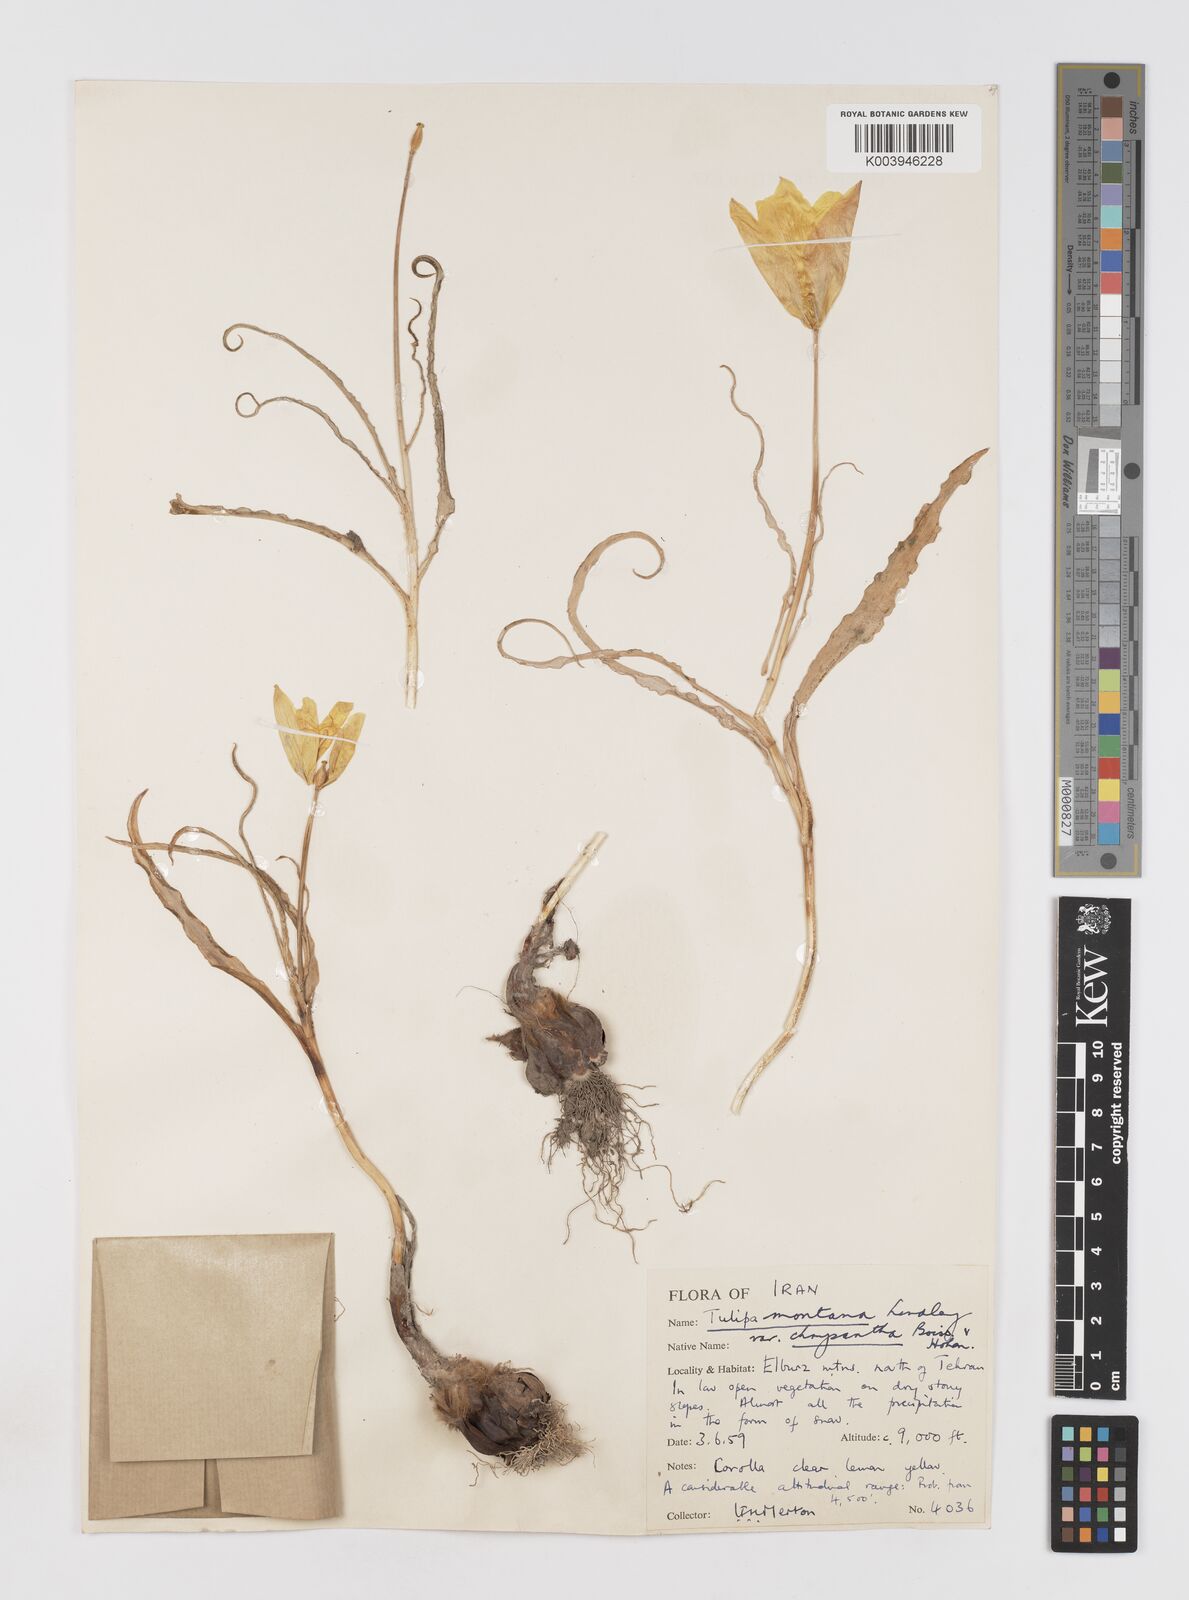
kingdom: Plantae
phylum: Tracheophyta
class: Liliopsida
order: Liliales
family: Liliaceae
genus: Tulipa
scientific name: Tulipa montana
